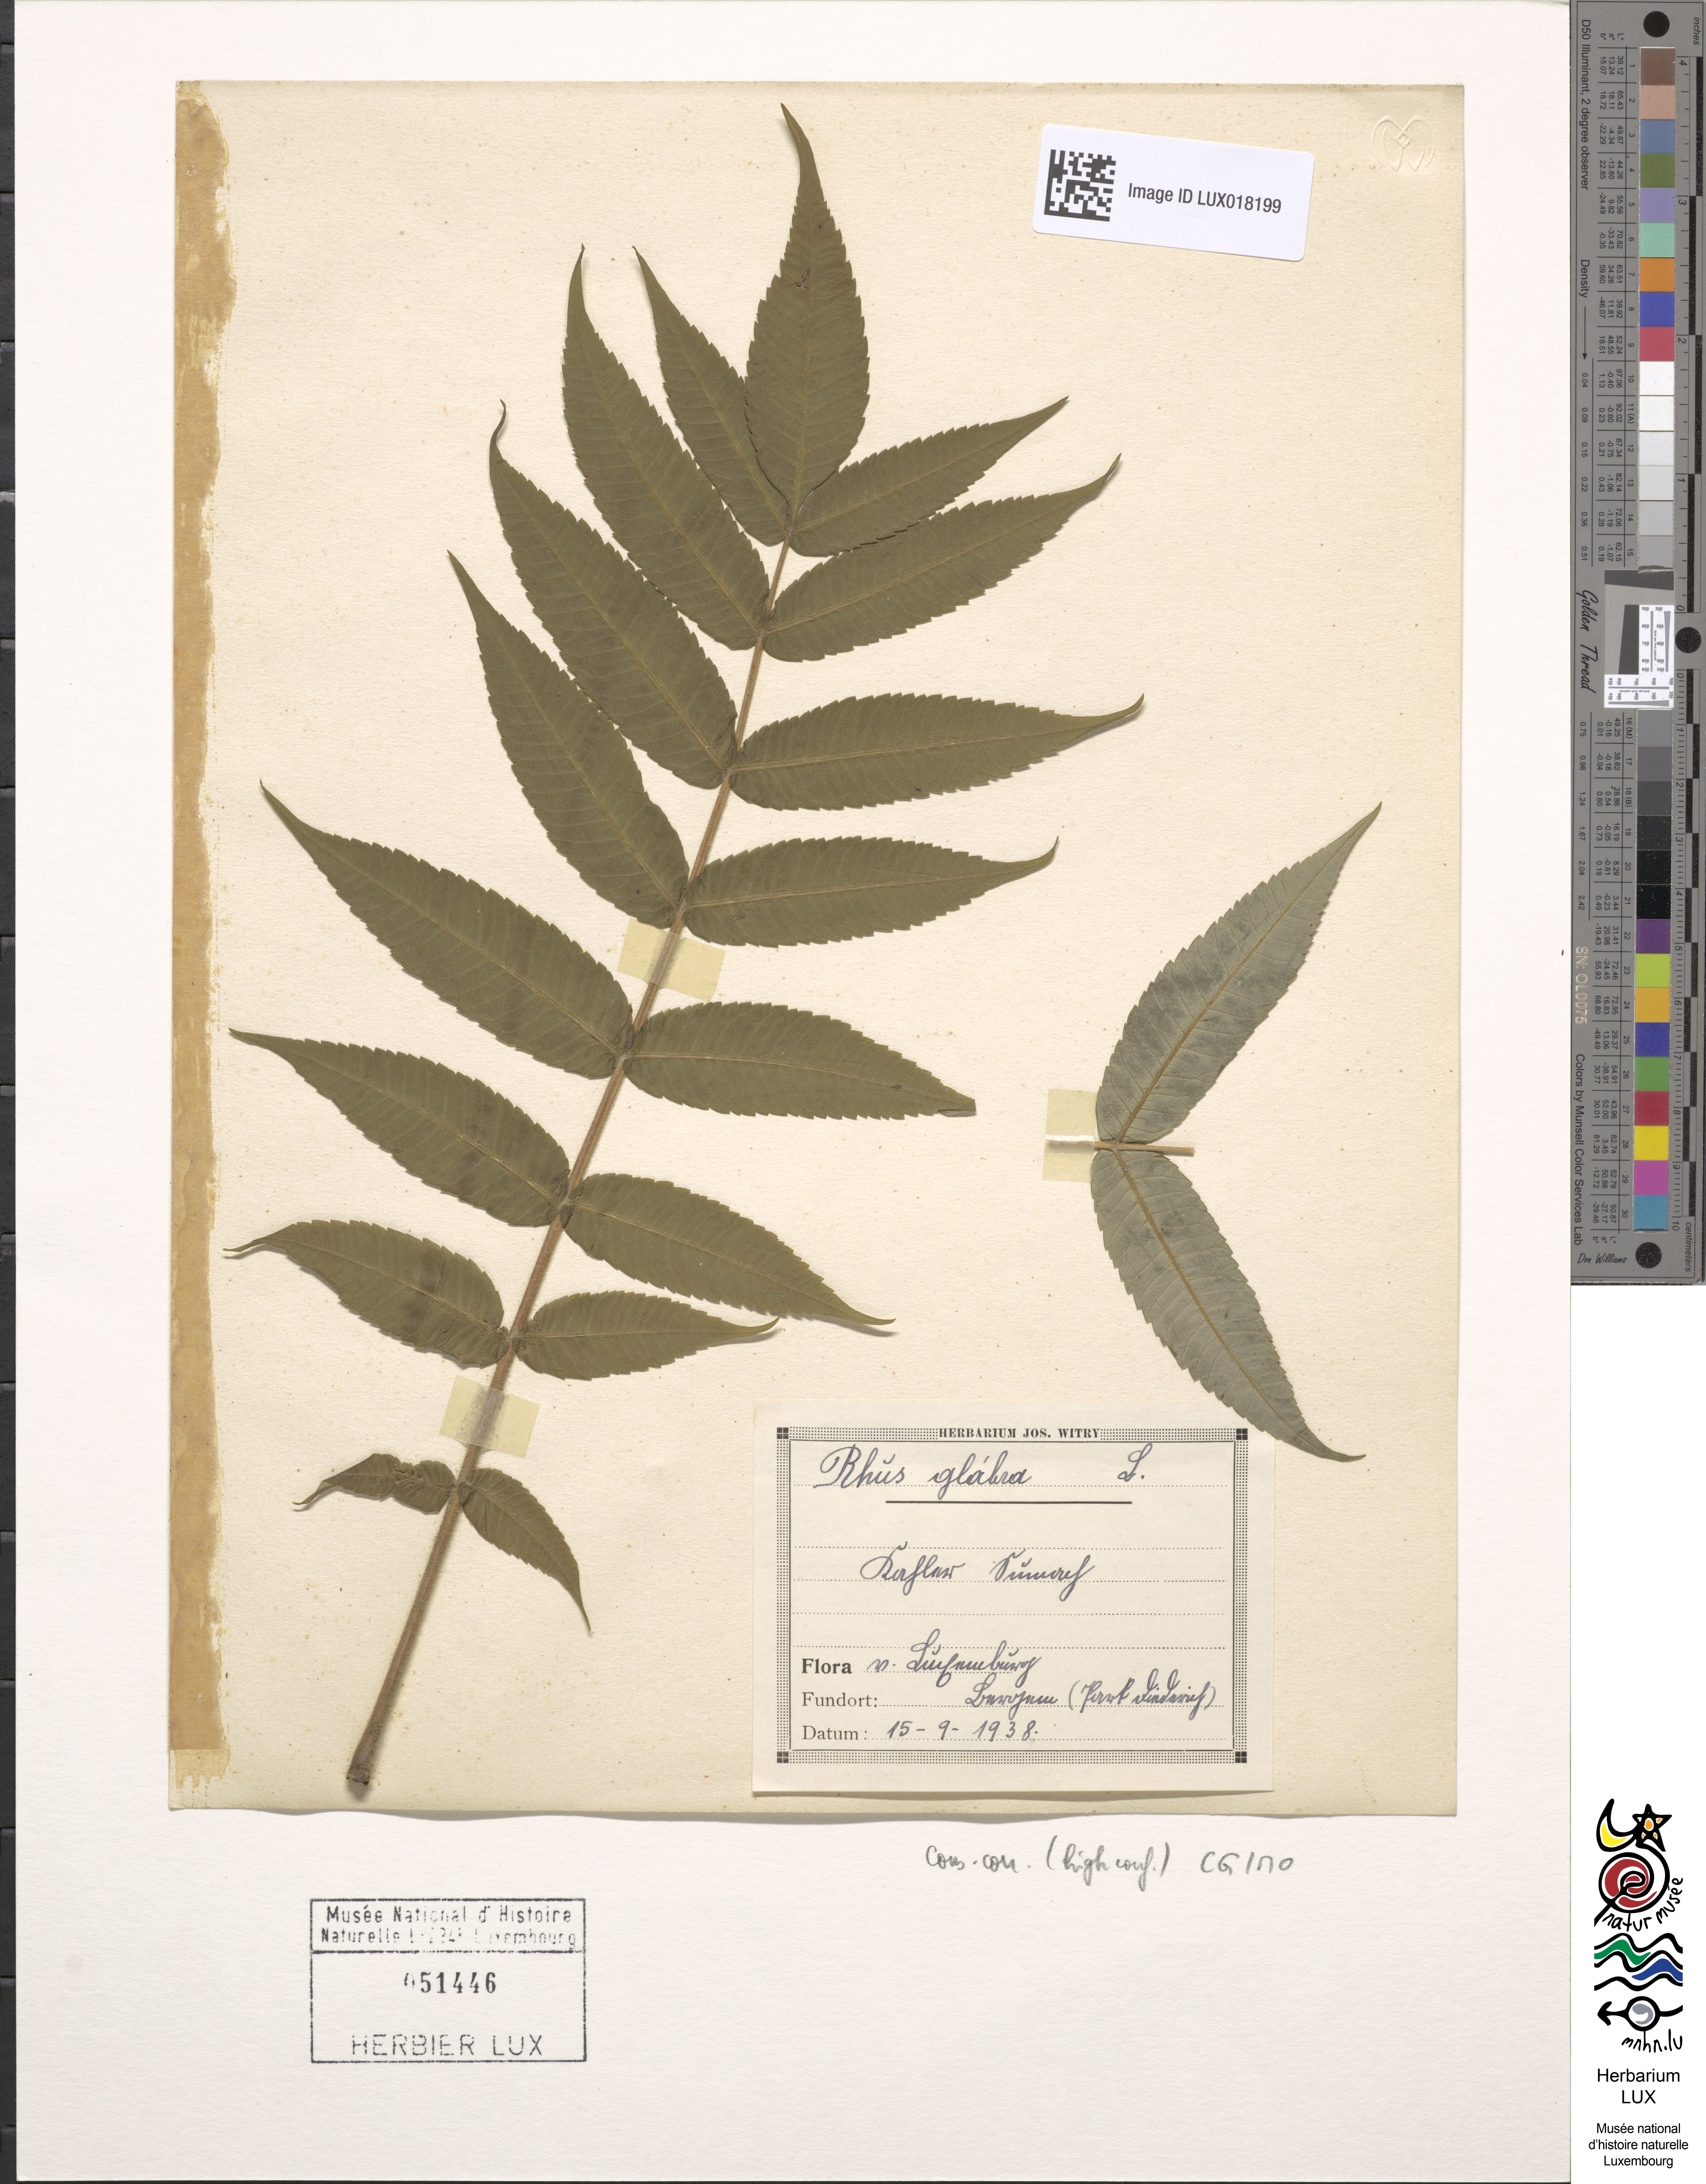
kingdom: Plantae
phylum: Tracheophyta
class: Magnoliopsida
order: Sapindales
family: Anacardiaceae
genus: Rhus
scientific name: Rhus glabra
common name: Scarlet sumac
